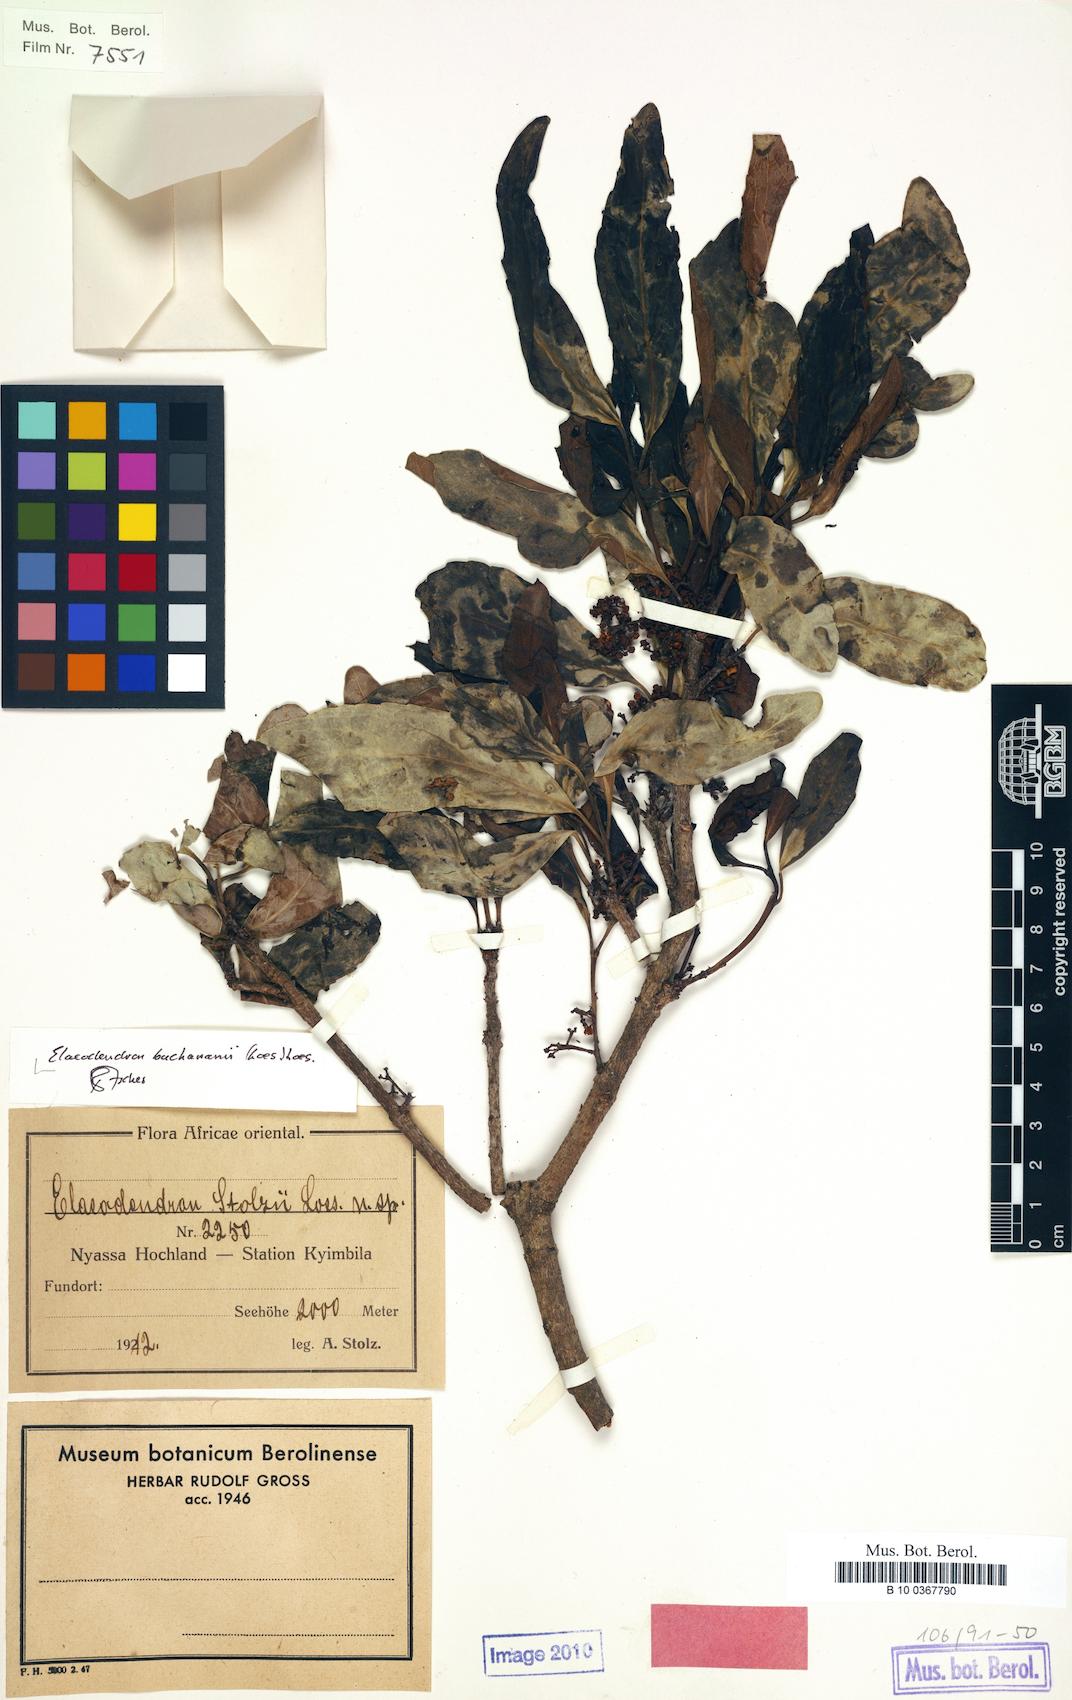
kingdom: Plantae
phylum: Tracheophyta
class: Magnoliopsida
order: Celastrales
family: Celastraceae
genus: Elaeodendron
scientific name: Elaeodendron buchananii
